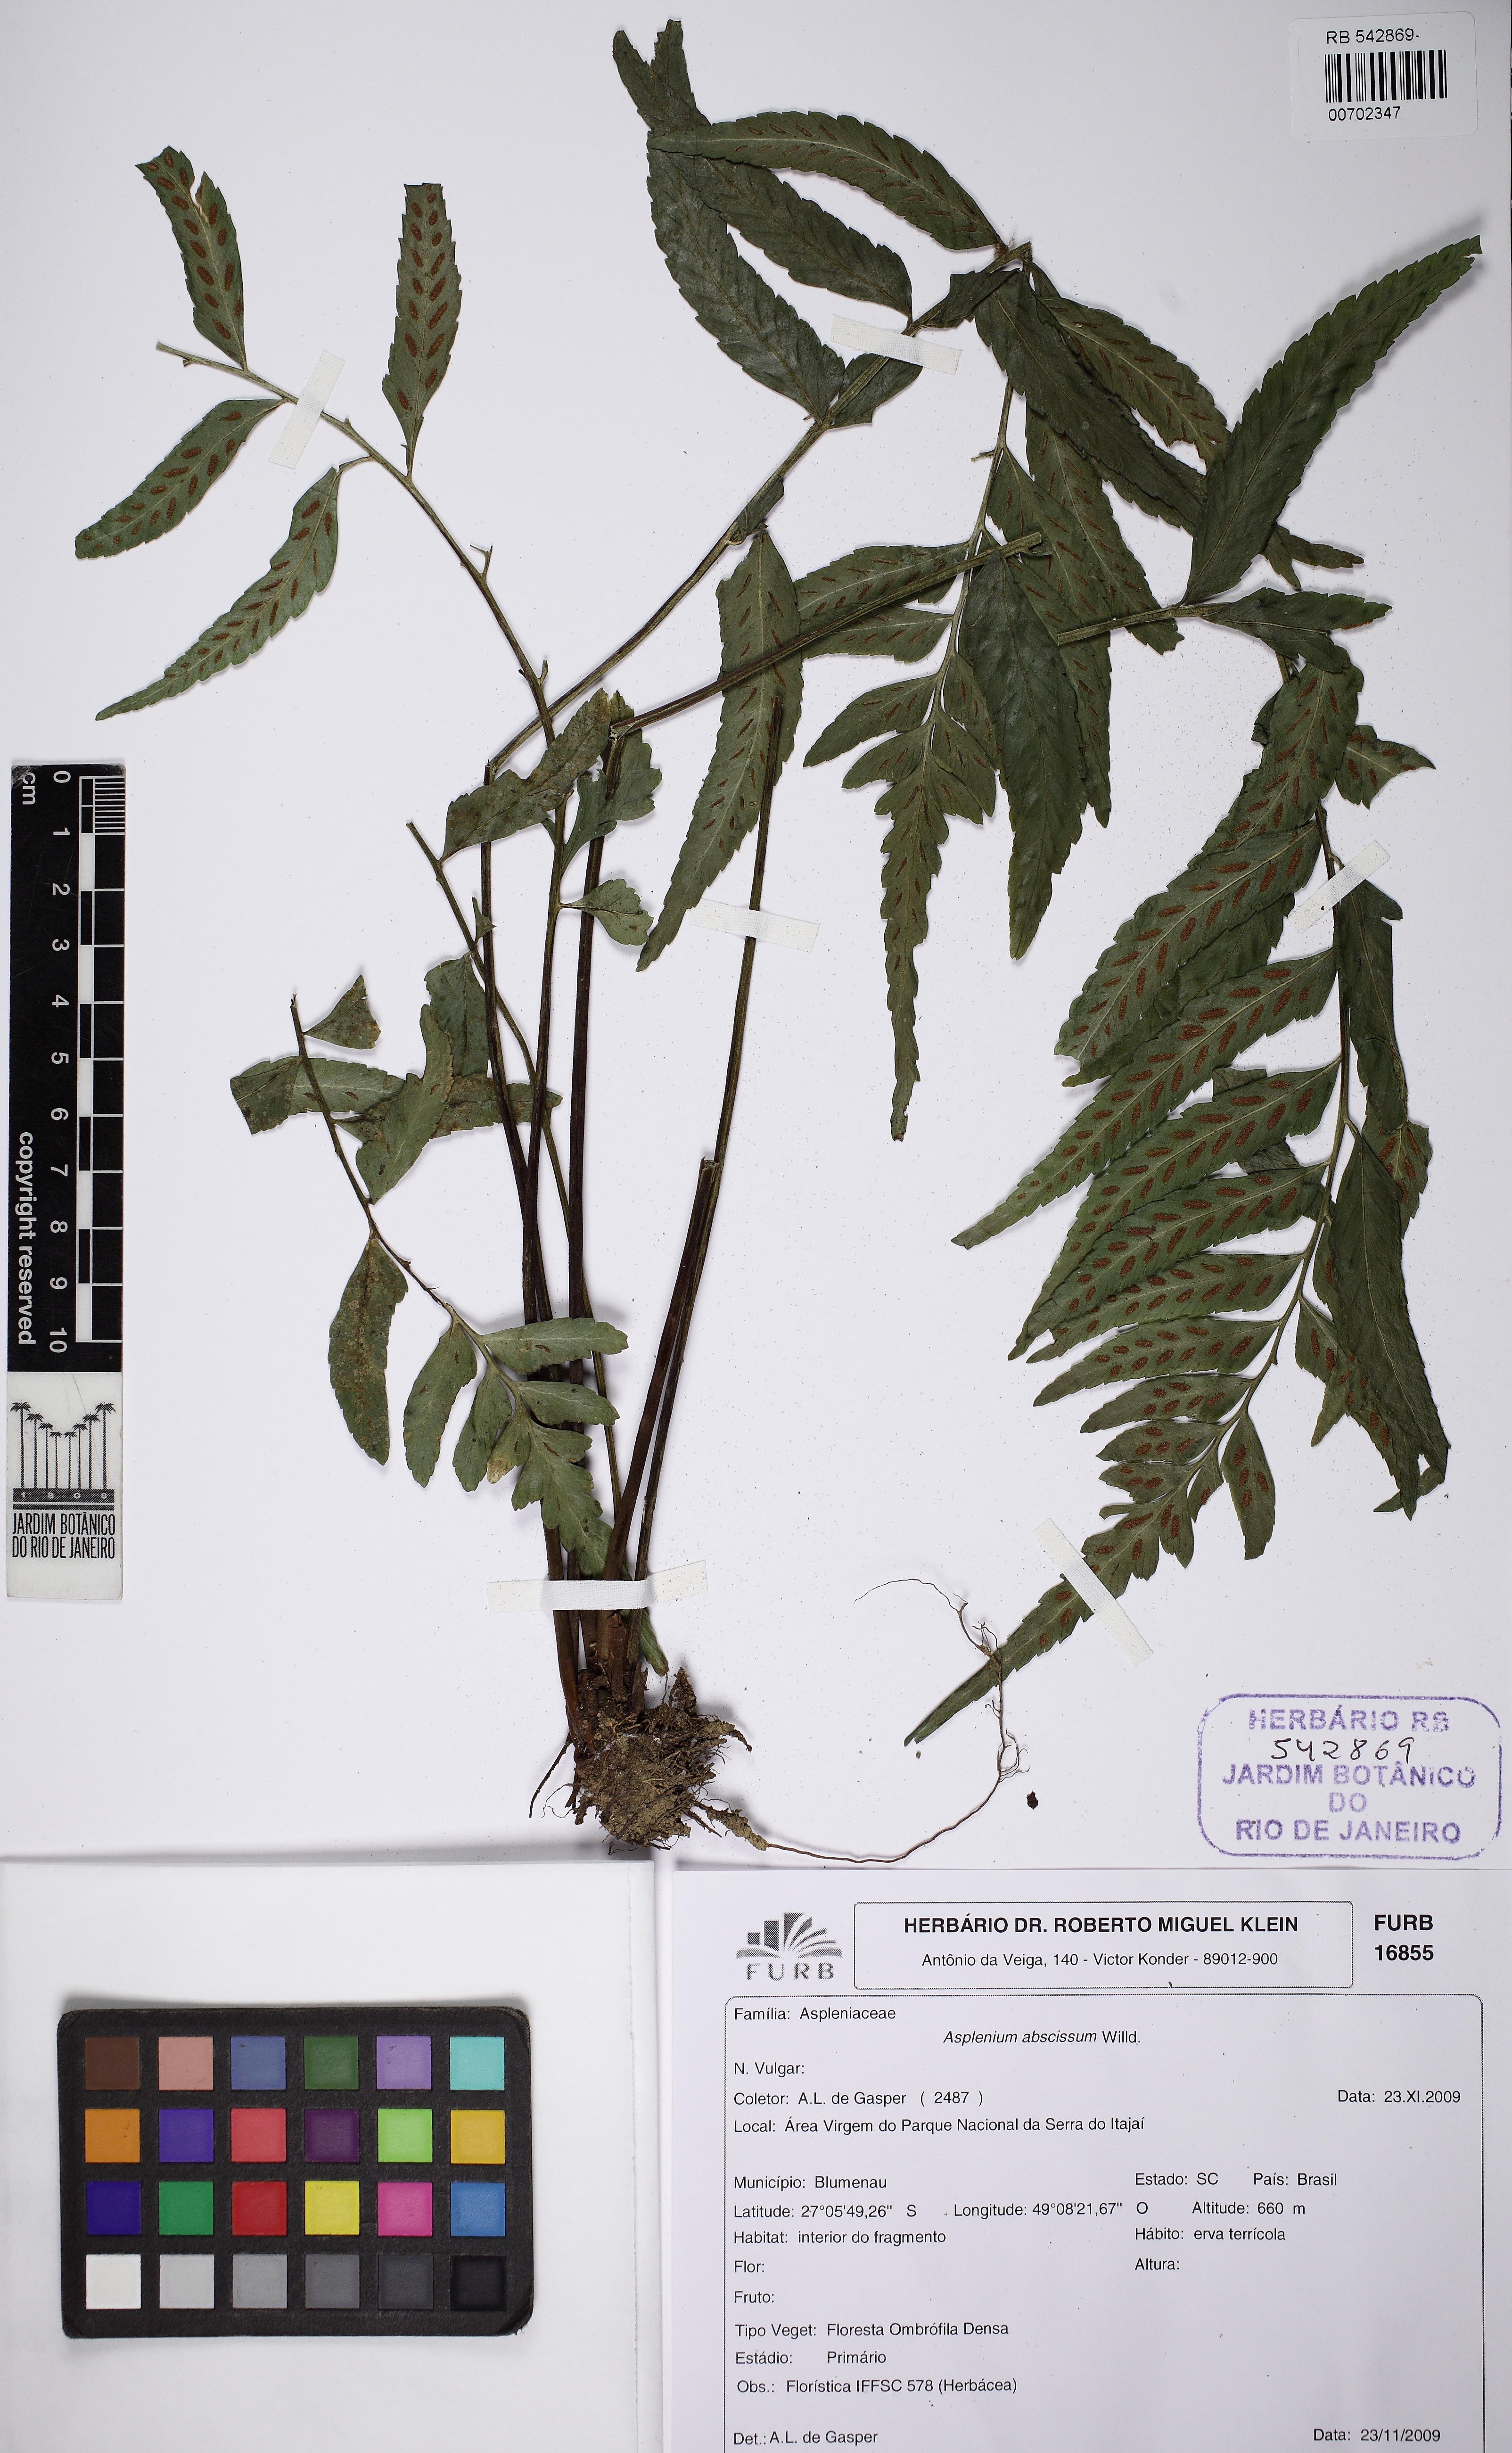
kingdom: Plantae
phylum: Tracheophyta
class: Polypodiopsida
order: Polypodiales
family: Aspleniaceae
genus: Asplenium
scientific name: Asplenium abscissum
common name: Cutleaf spleenwort
